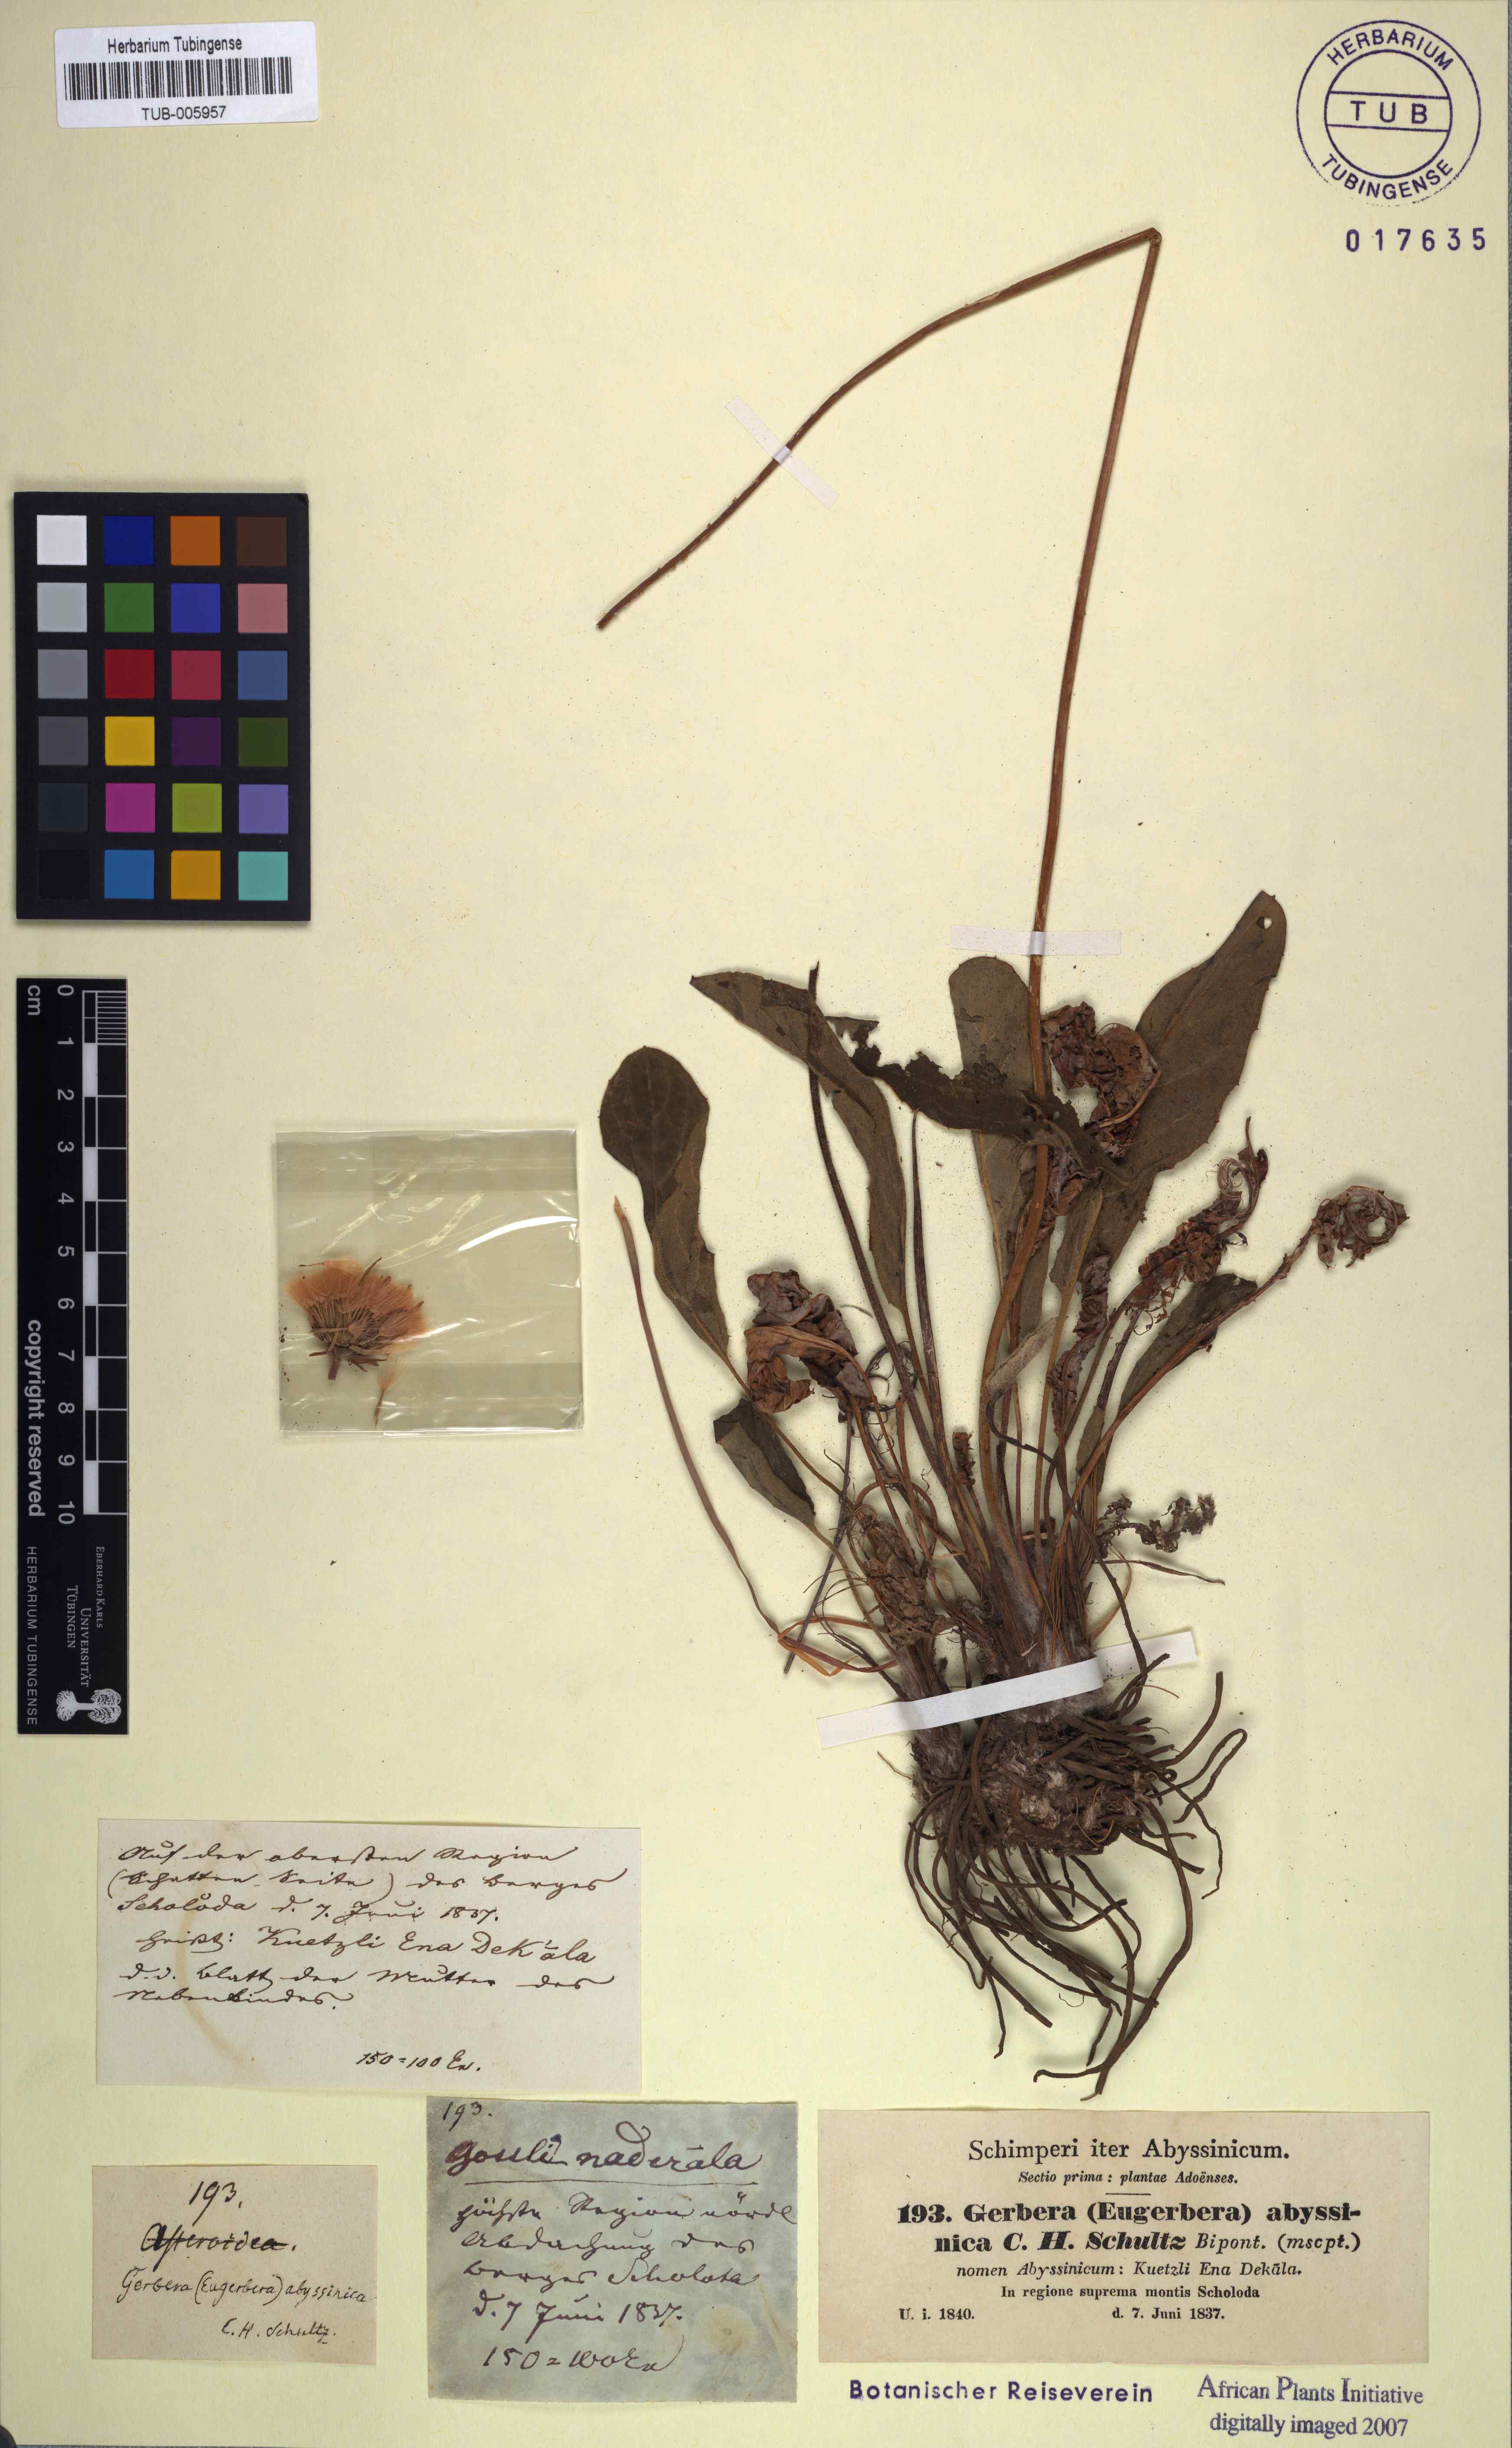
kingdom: Plantae
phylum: Tracheophyta
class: Magnoliopsida
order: Asterales
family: Asteraceae
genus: Gerbera
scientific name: Gerbera viridifolia
